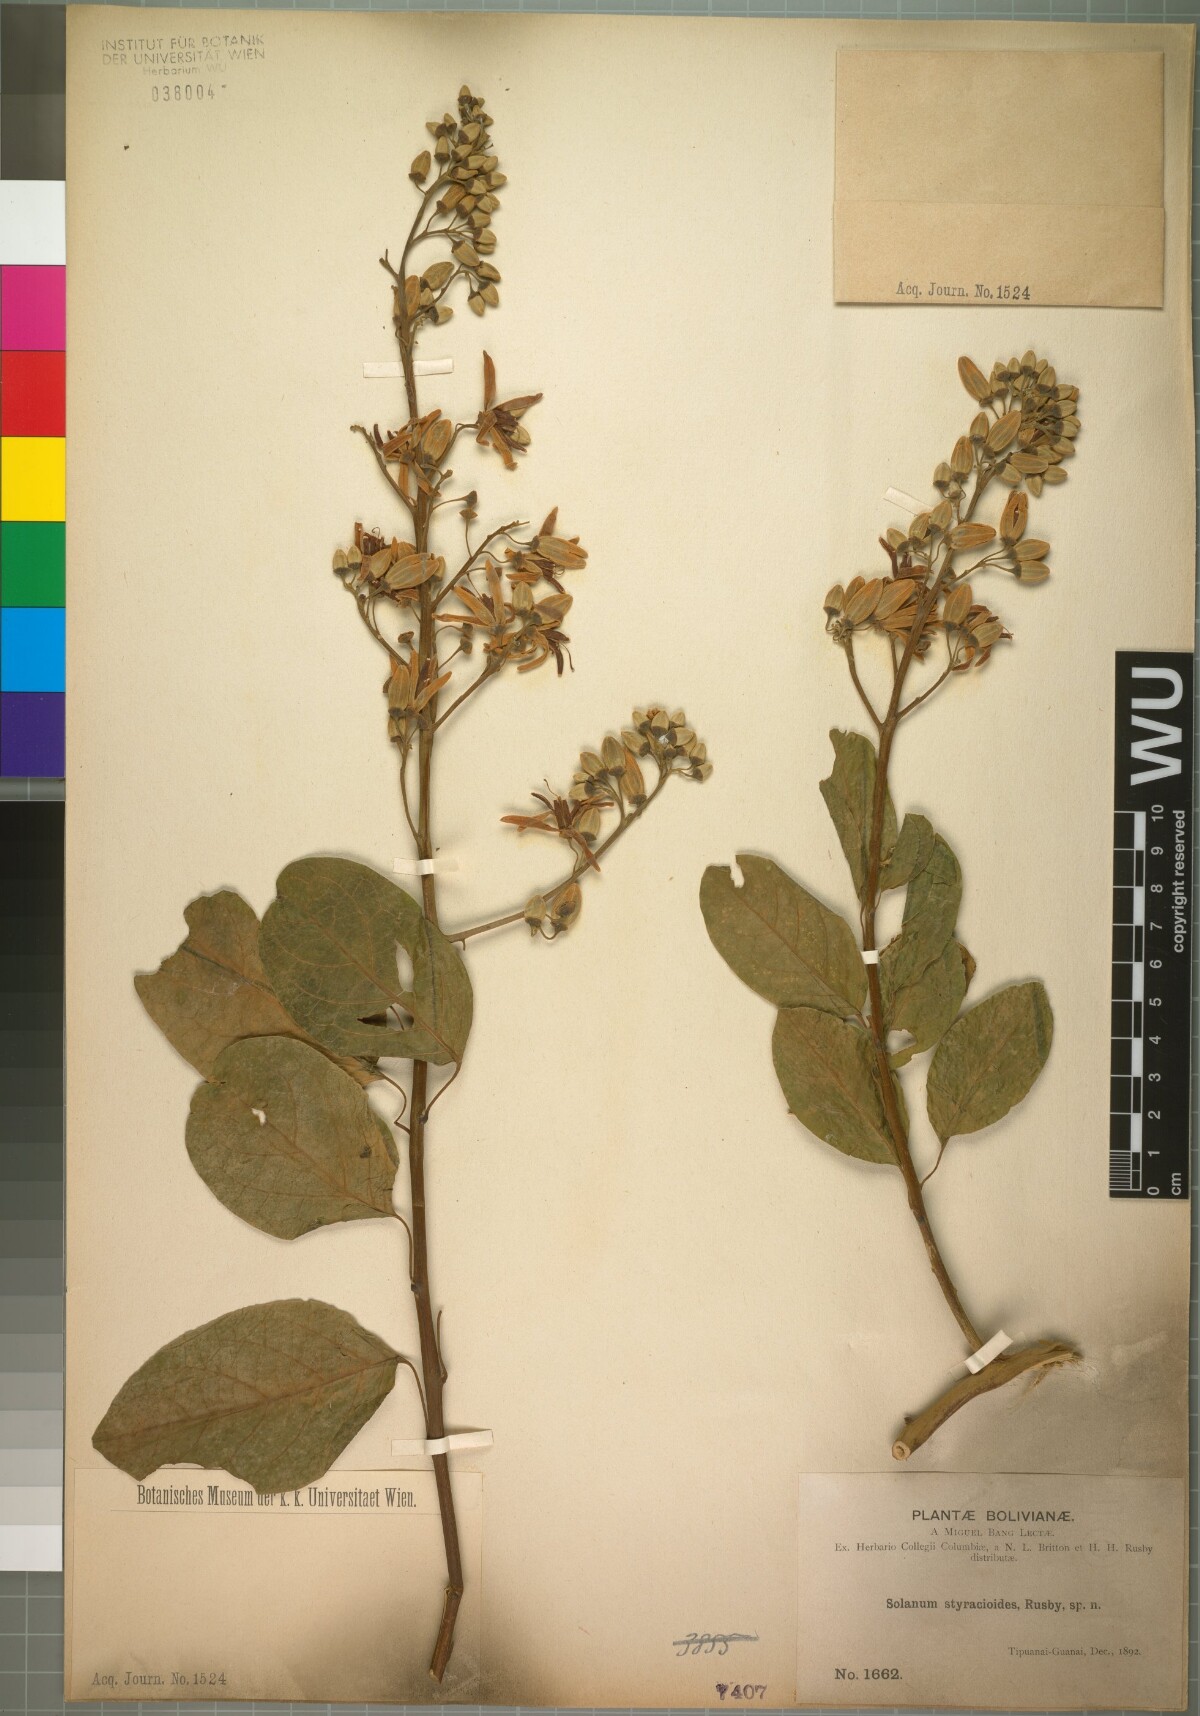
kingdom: Plantae
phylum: Tracheophyta
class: Magnoliopsida
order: Solanales
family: Solanaceae
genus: Solanum
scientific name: Solanum uncinellum
